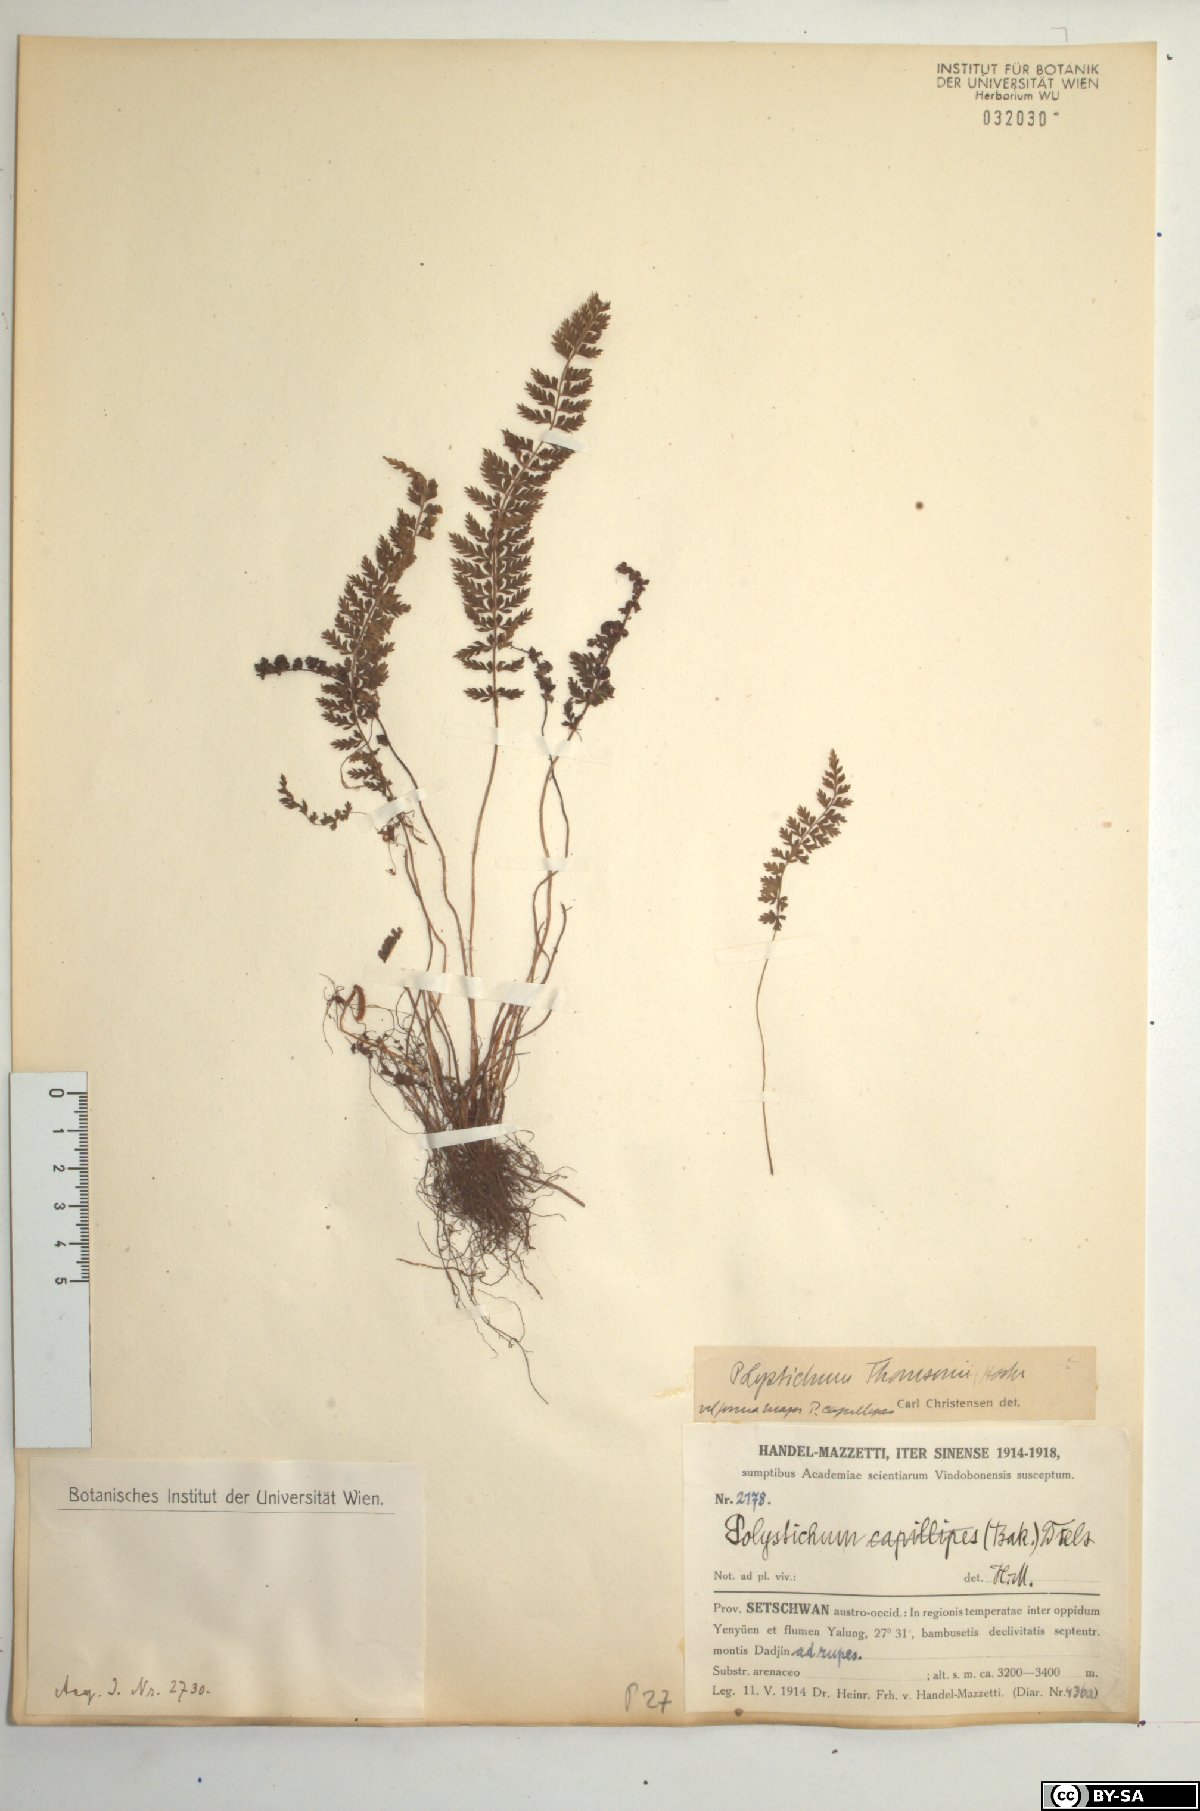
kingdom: Plantae
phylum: Tracheophyta
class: Polypodiopsida
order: Polypodiales
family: Dryopteridaceae
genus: Polystichum
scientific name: Polystichum thomsonii
